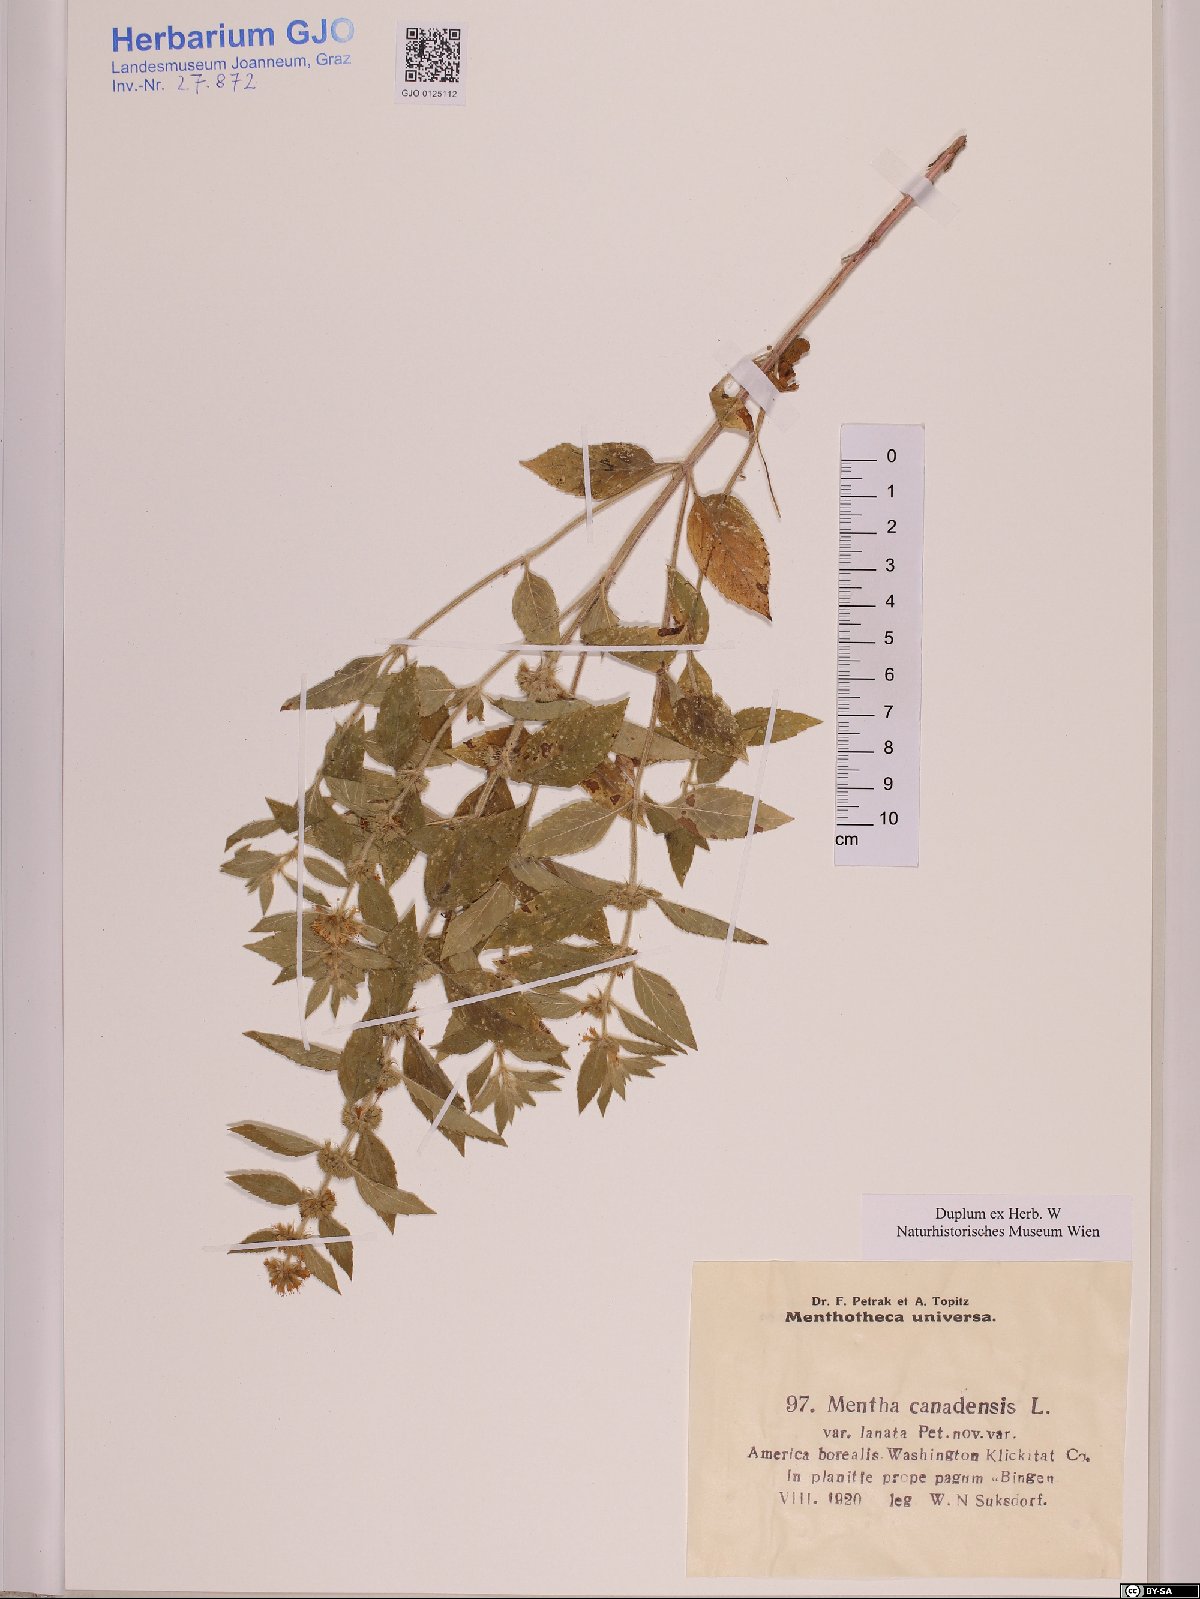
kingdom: Plantae
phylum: Tracheophyta
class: Magnoliopsida
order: Lamiales
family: Lamiaceae
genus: Mentha
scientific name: Mentha canadensis
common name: American corn mint
